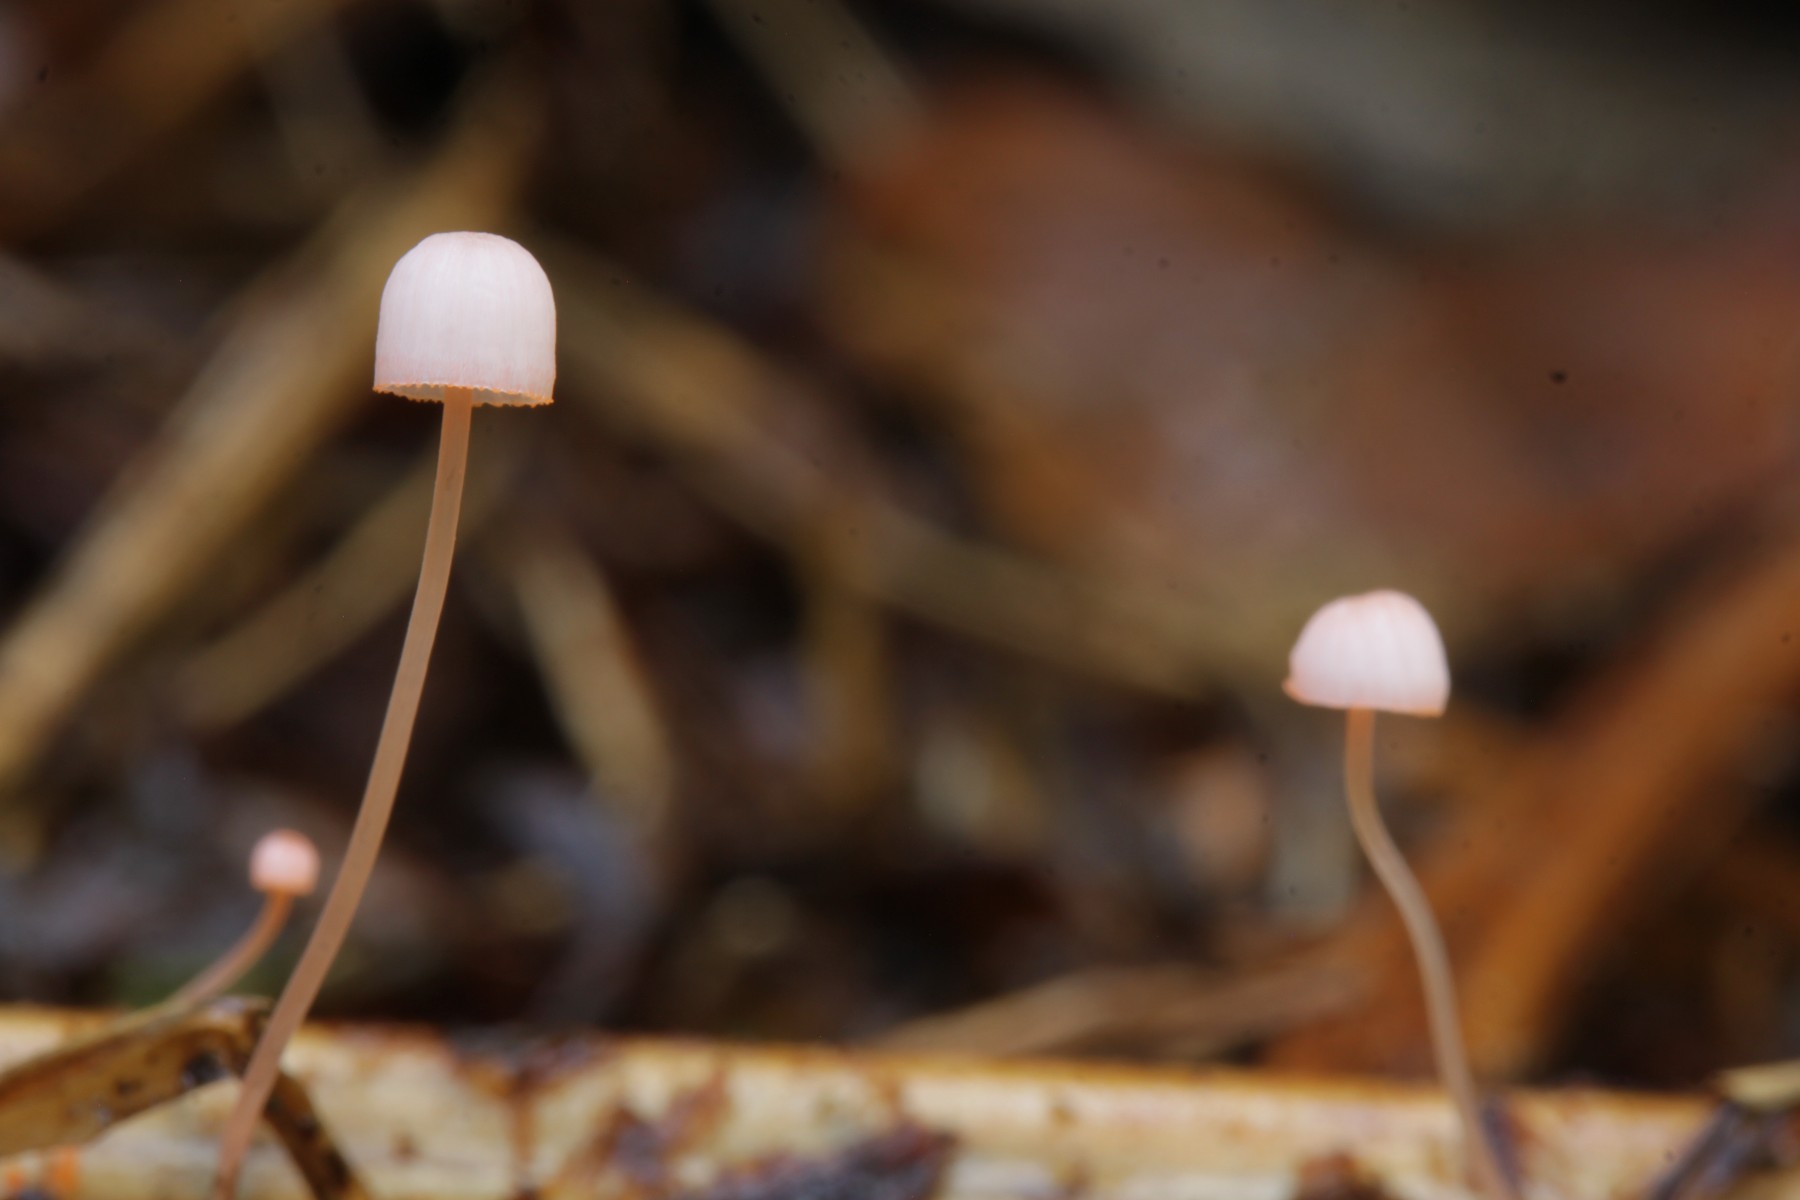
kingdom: Fungi
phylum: Basidiomycota
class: Agaricomycetes
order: Agaricales
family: Mycenaceae
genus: Mycena
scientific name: Mycena pterigena
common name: bregne-huesvamp
